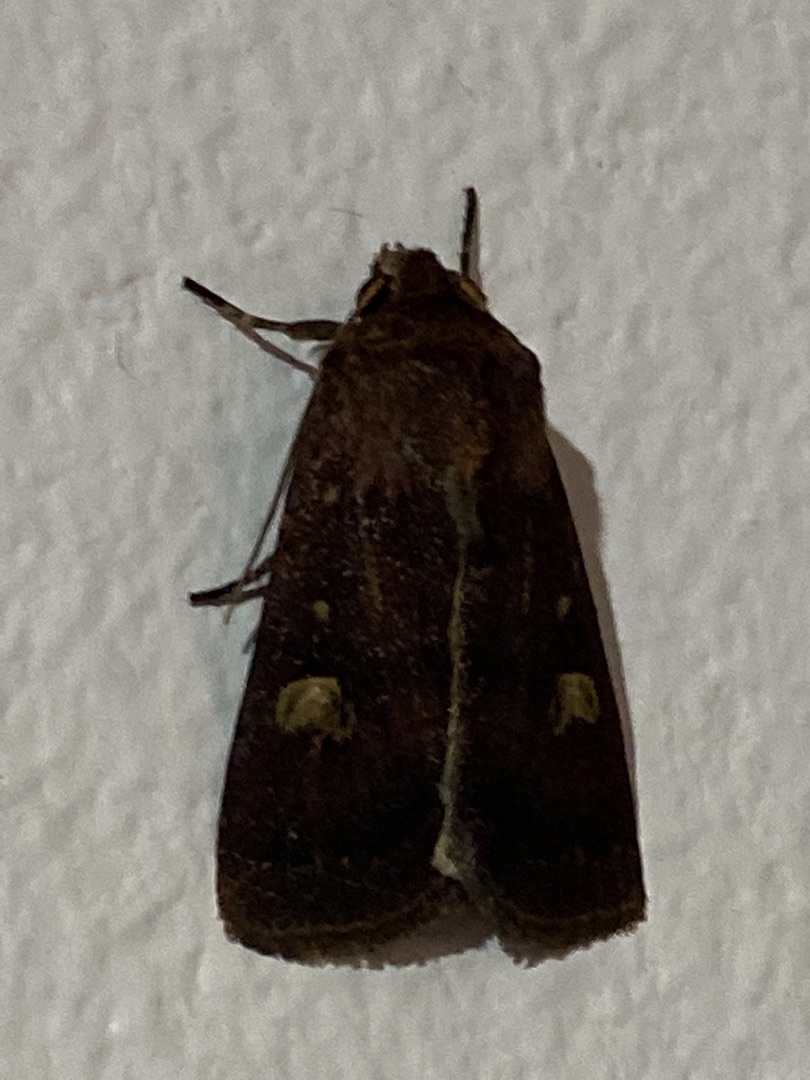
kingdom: Animalia
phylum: Arthropoda
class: Insecta
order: Lepidoptera
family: Noctuidae
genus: Xestia
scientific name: Xestia xanthographa
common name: Gulmærket glansugle
